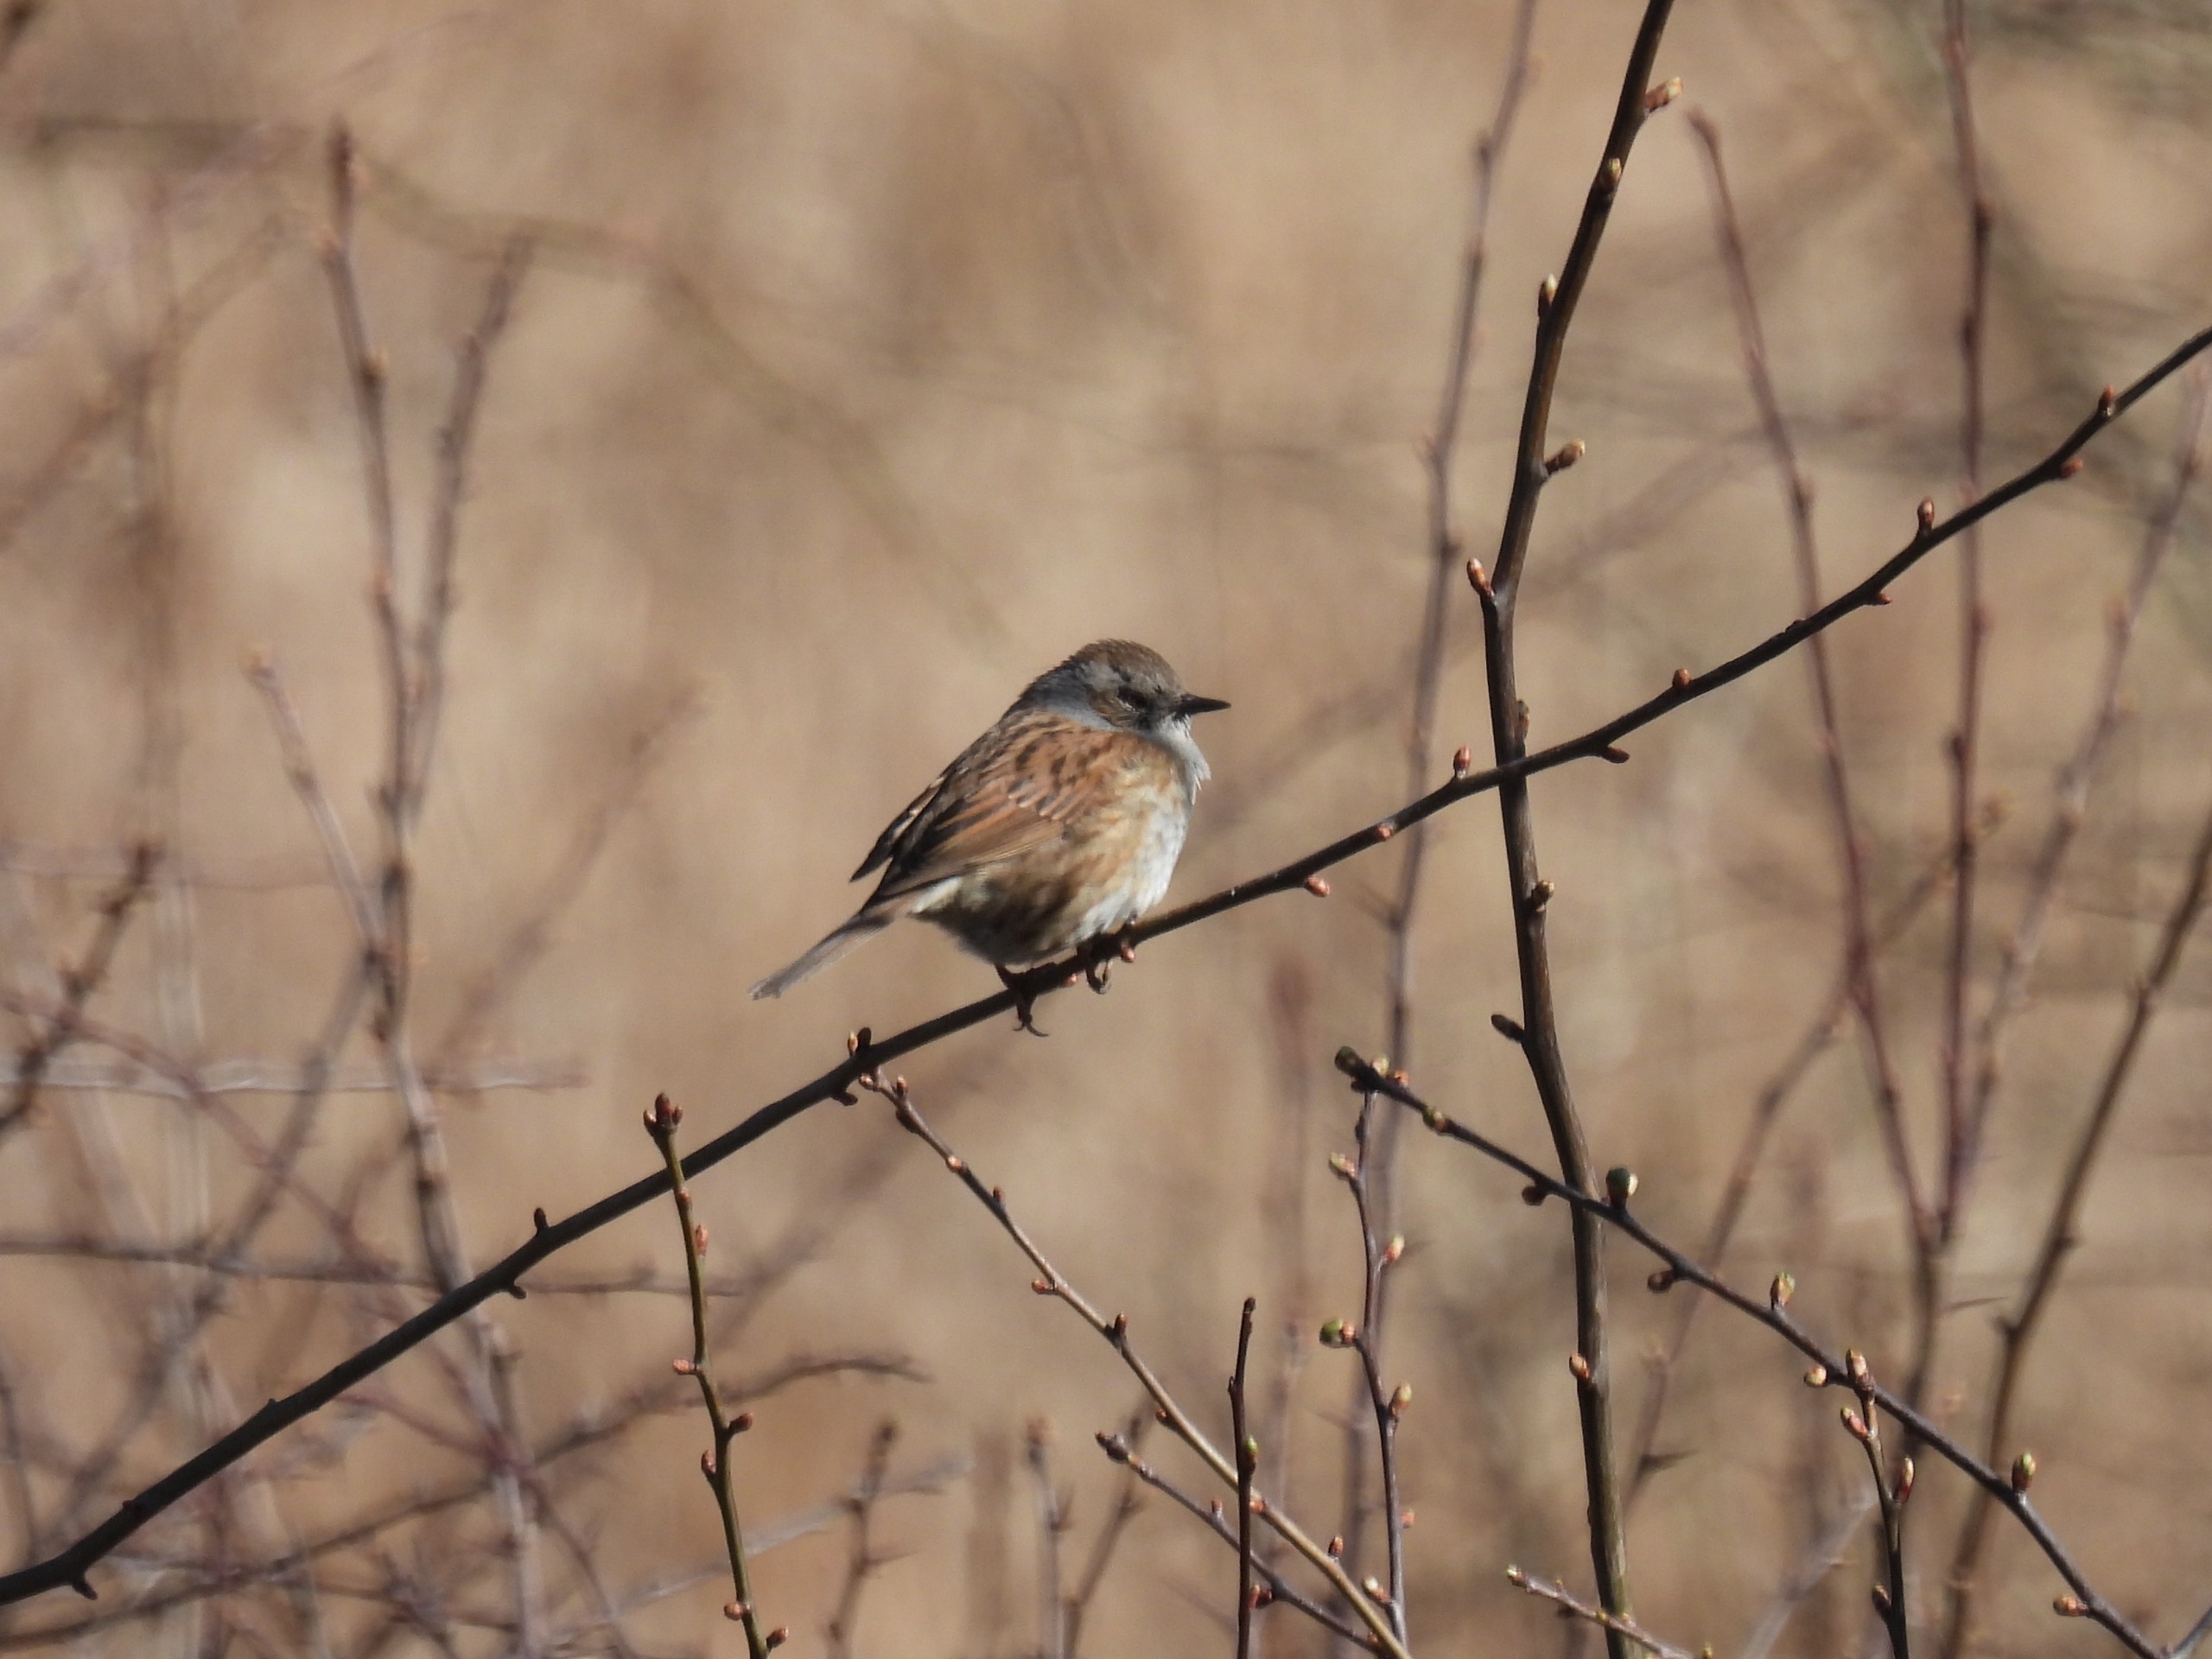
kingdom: Animalia
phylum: Chordata
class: Aves
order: Passeriformes
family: Prunellidae
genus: Prunella
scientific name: Prunella modularis
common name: Jernspurv
